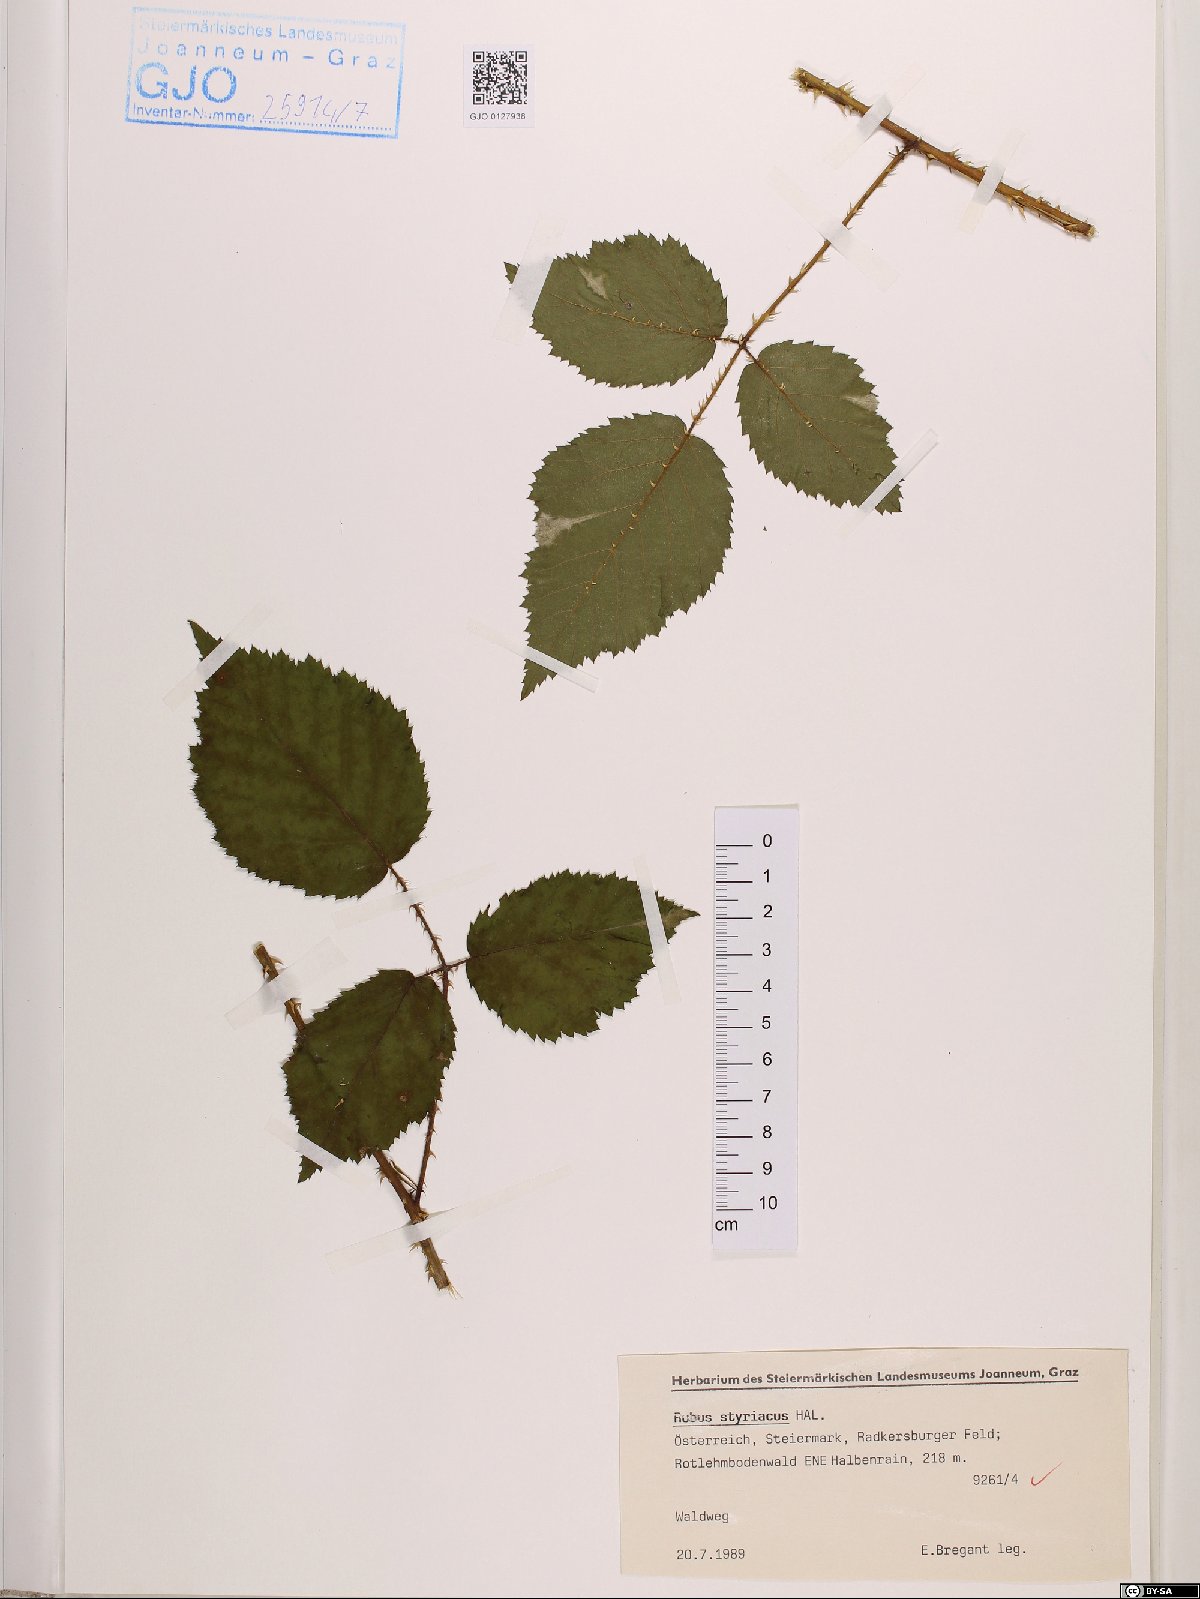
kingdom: Plantae
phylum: Tracheophyta
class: Magnoliopsida
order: Rosales
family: Rosaceae
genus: Rubus
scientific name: Rubus styriacus
